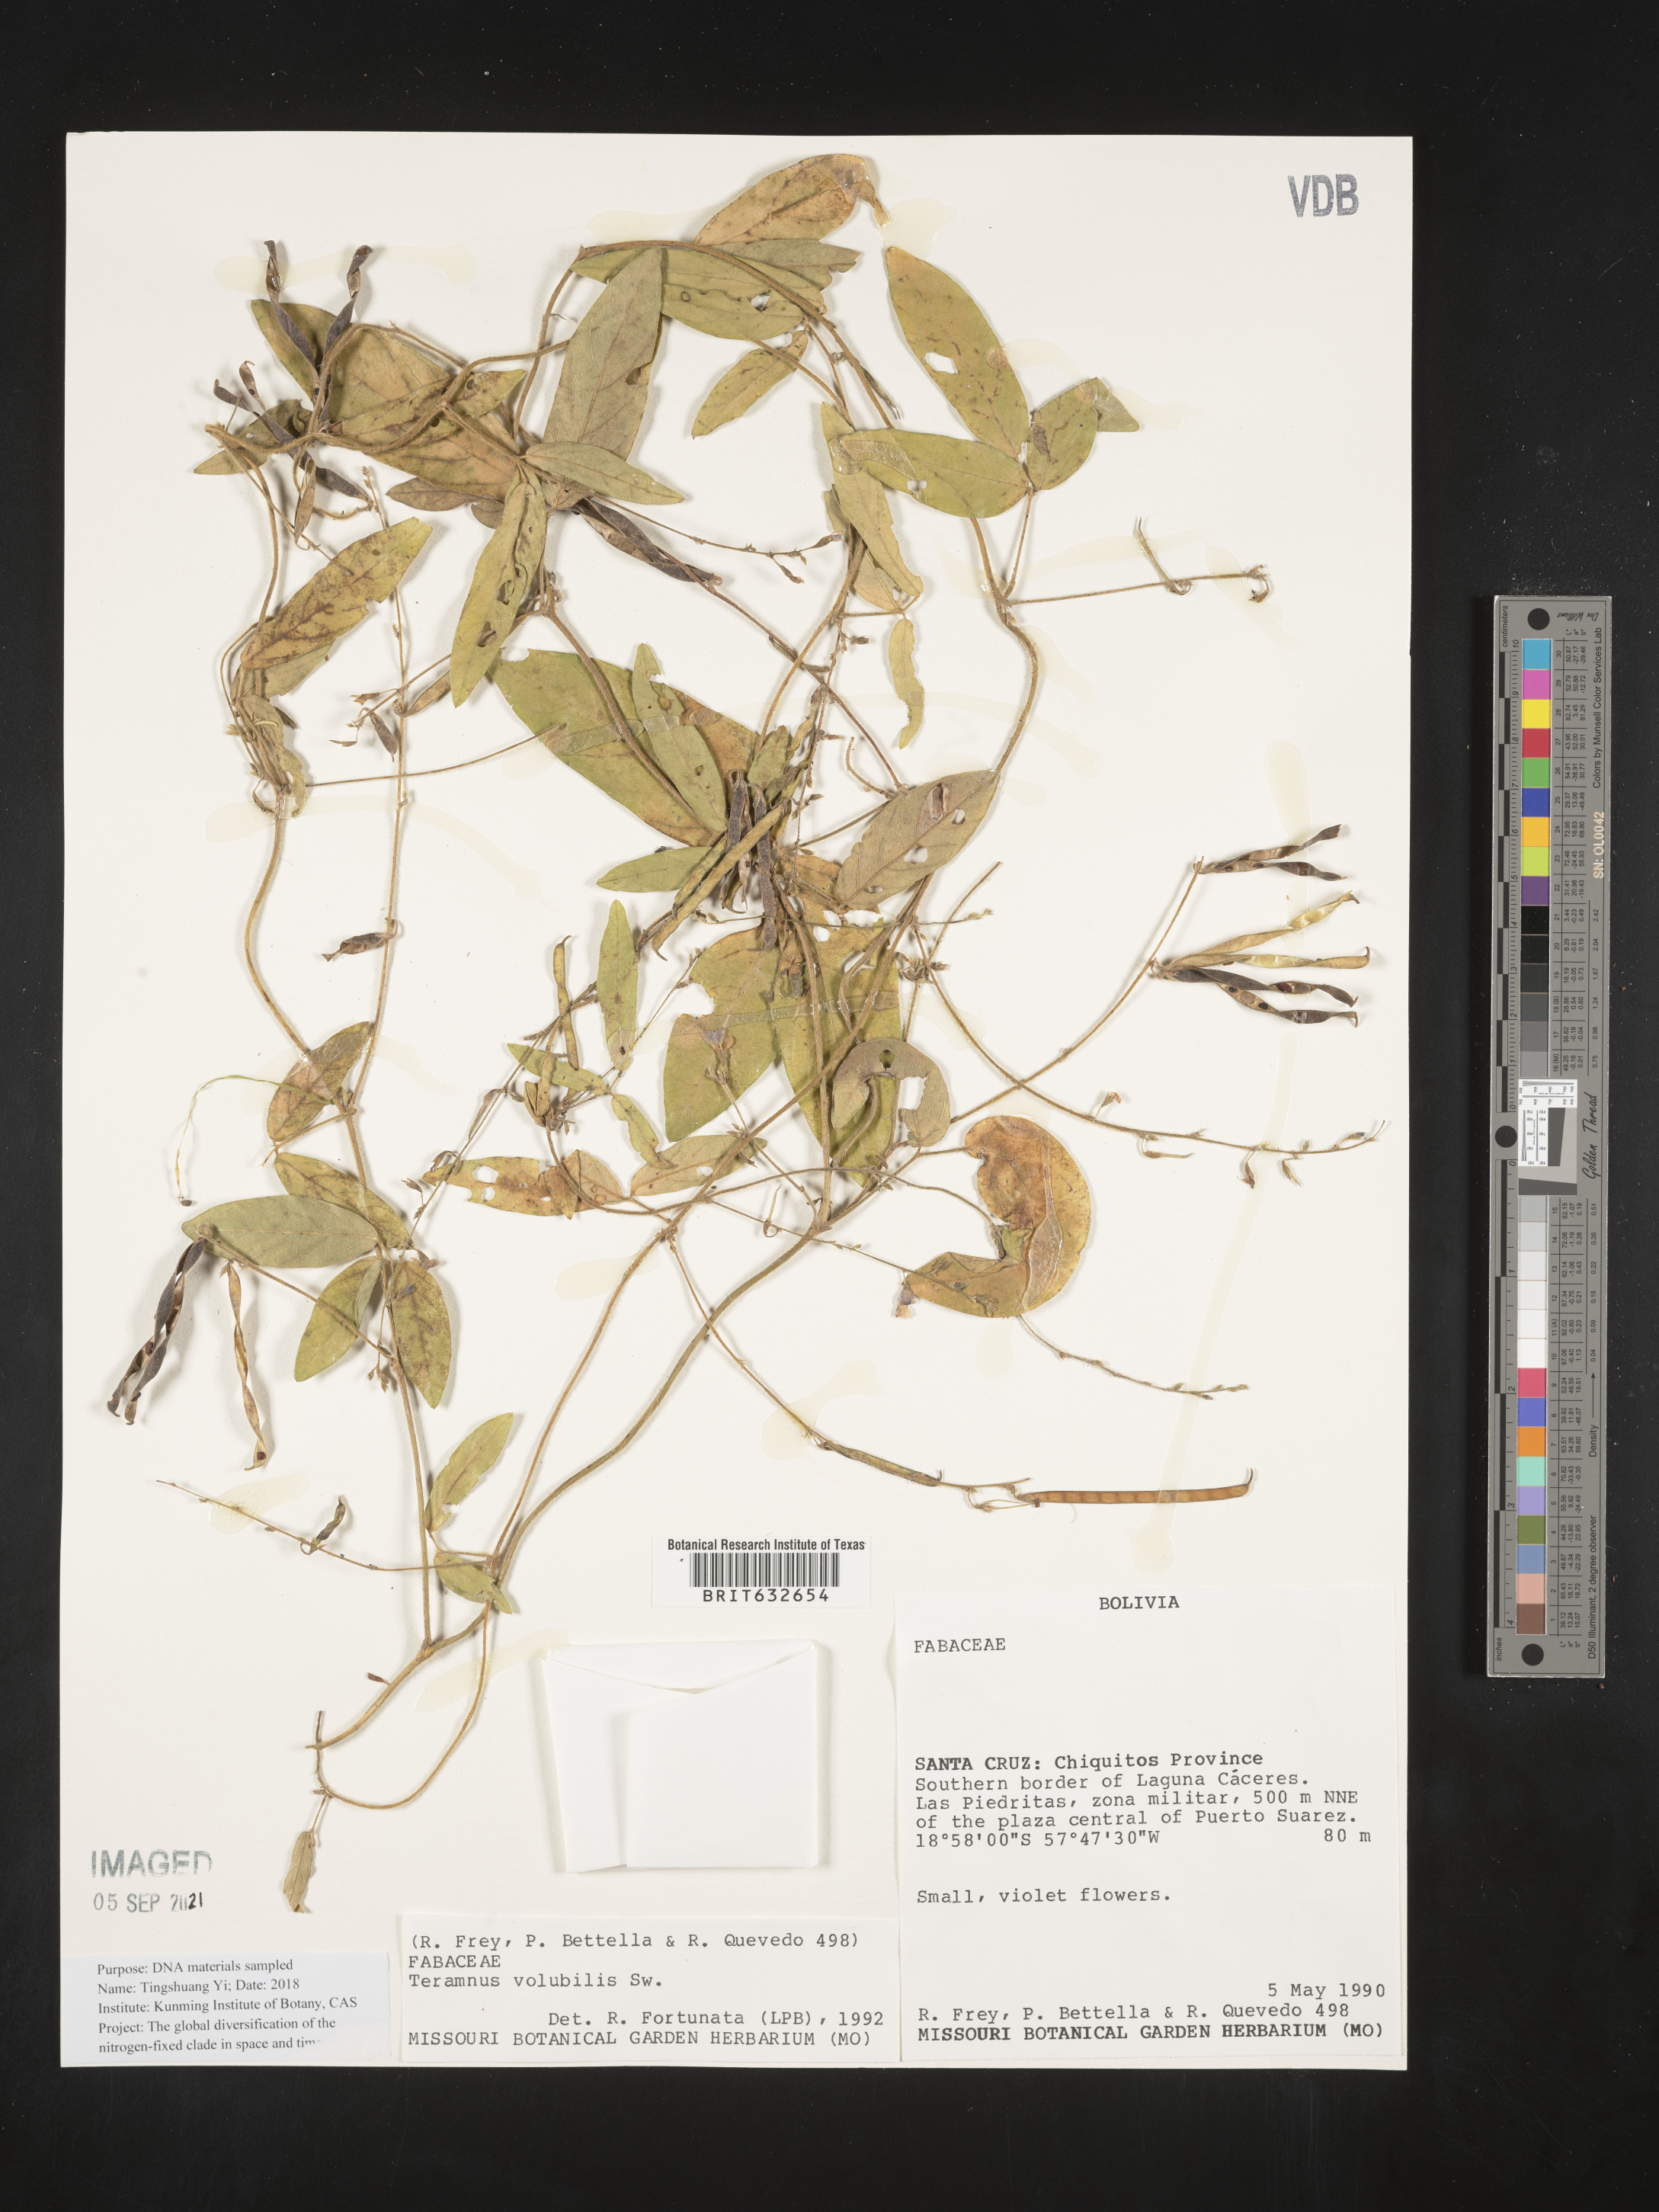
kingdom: Plantae
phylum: Tracheophyta
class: Magnoliopsida
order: Fabales
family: Fabaceae
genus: Teramnus
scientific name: Teramnus
